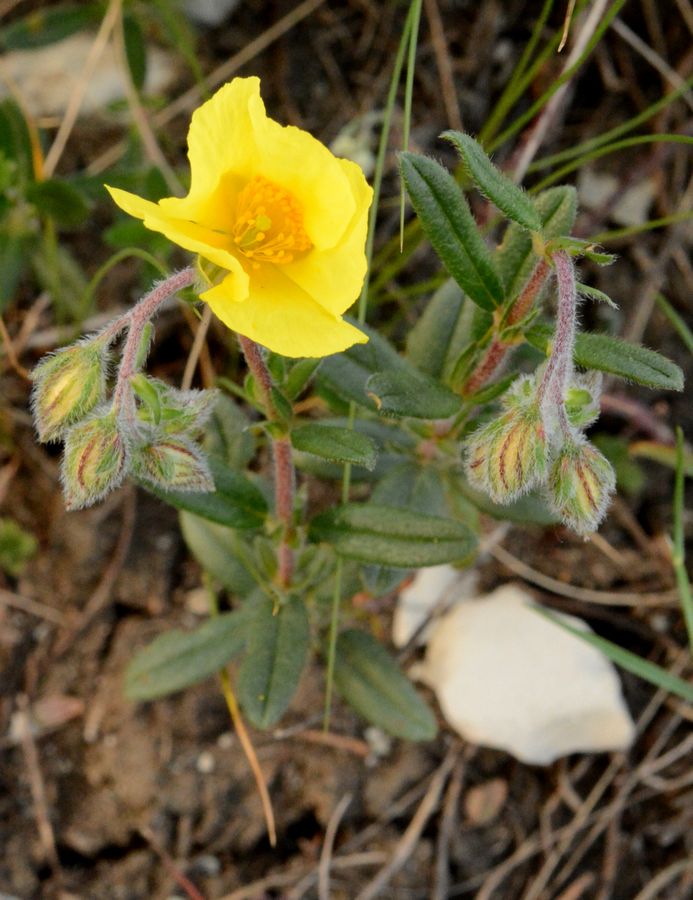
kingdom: Plantae
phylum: Tracheophyta
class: Magnoliopsida
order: Malvales
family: Cistaceae
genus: Helianthemum
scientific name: Helianthemum nummularium
